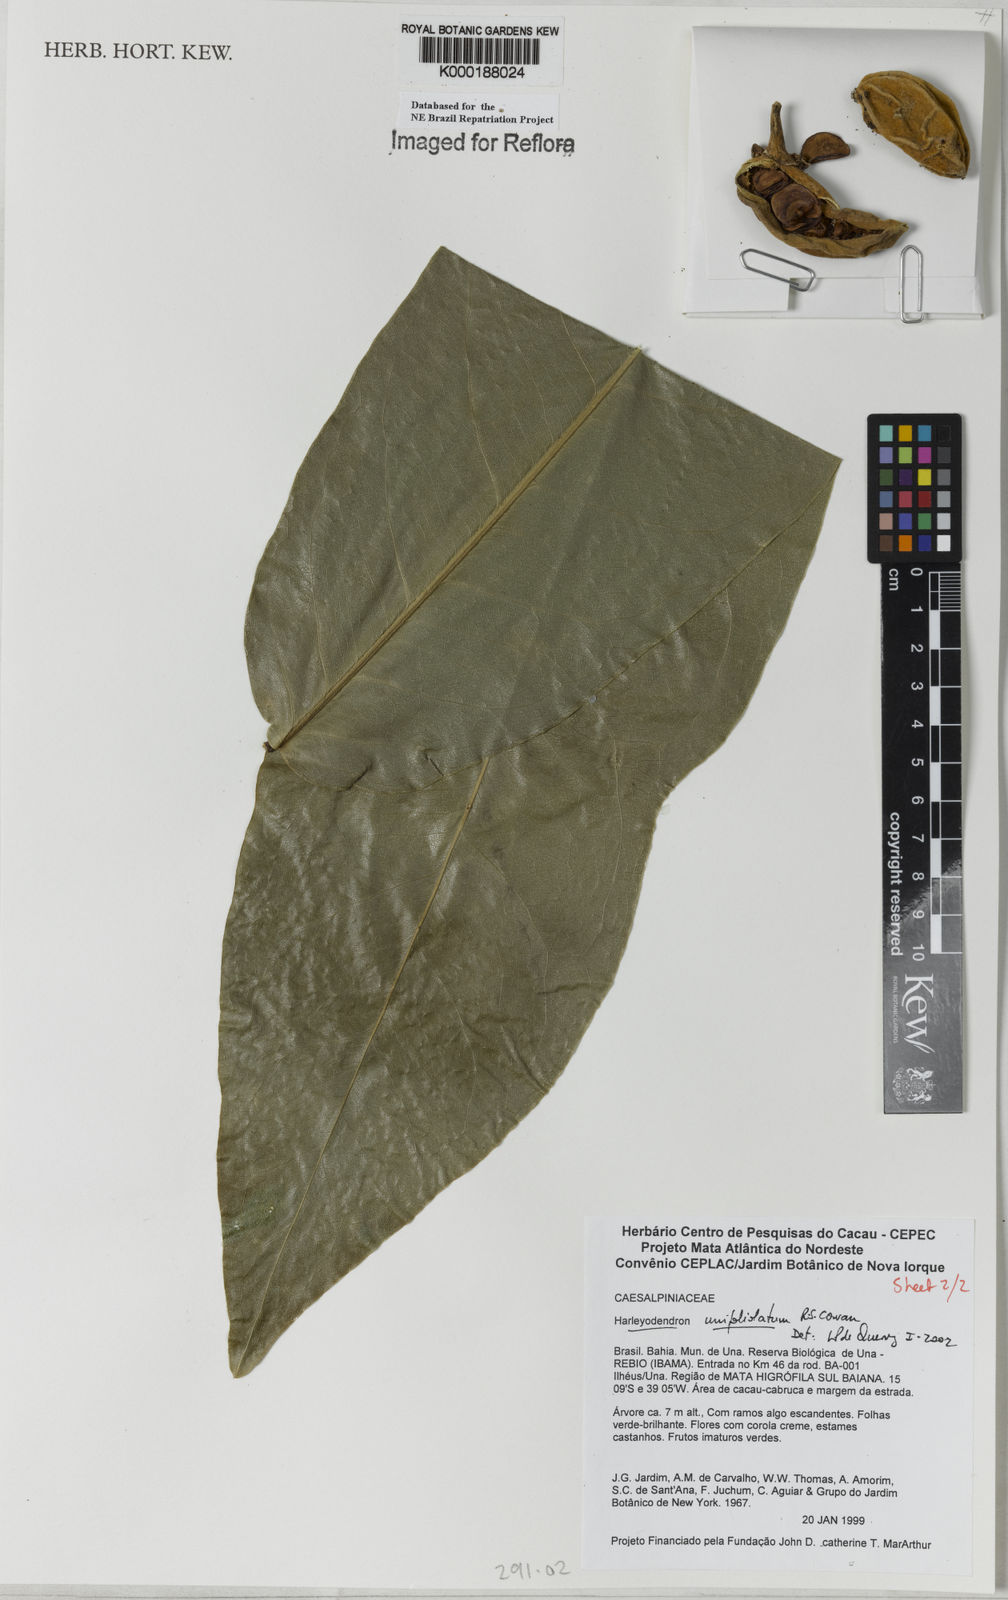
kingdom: Plantae
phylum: Tracheophyta
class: Magnoliopsida
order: Fabales
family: Fabaceae
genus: Harleyodendron
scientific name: Harleyodendron unifoliolatum
